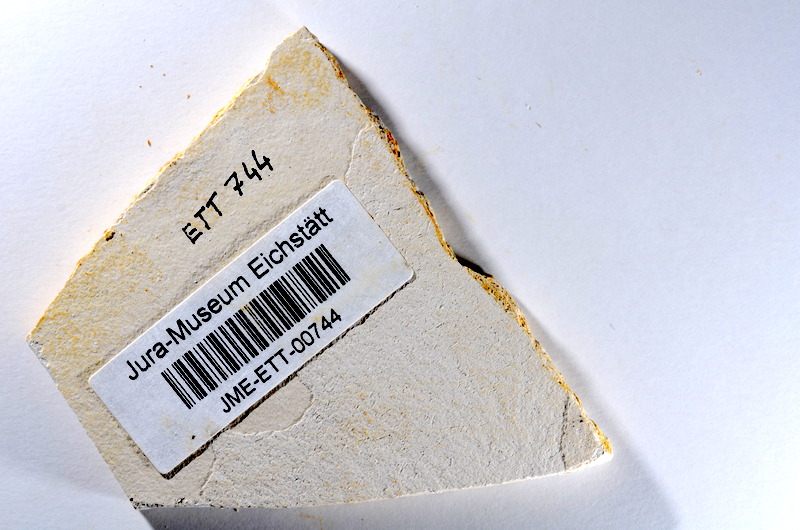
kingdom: Animalia
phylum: Chordata
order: Salmoniformes
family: Orthogonikleithridae
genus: Orthogonikleithrus
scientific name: Orthogonikleithrus hoelli
